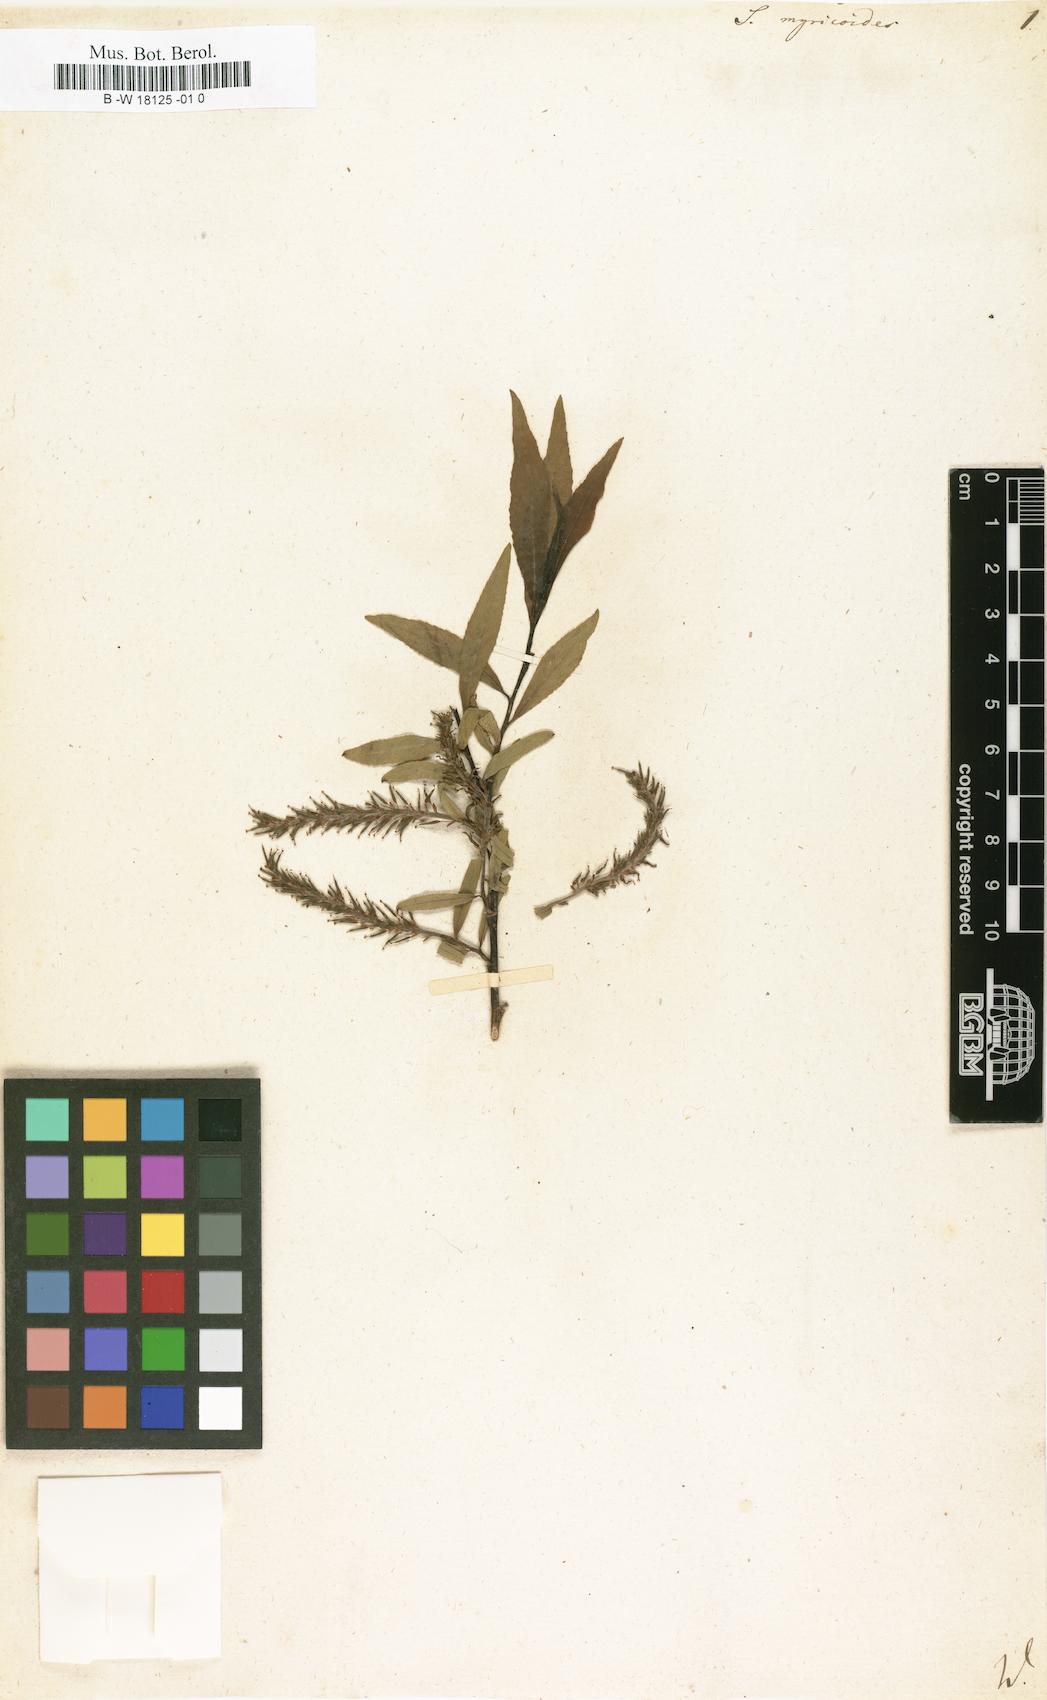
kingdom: Plantae
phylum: Tracheophyta
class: Magnoliopsida
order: Malpighiales
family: Salicaceae
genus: Salix
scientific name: Salix myricoides
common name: Bayberry willow
